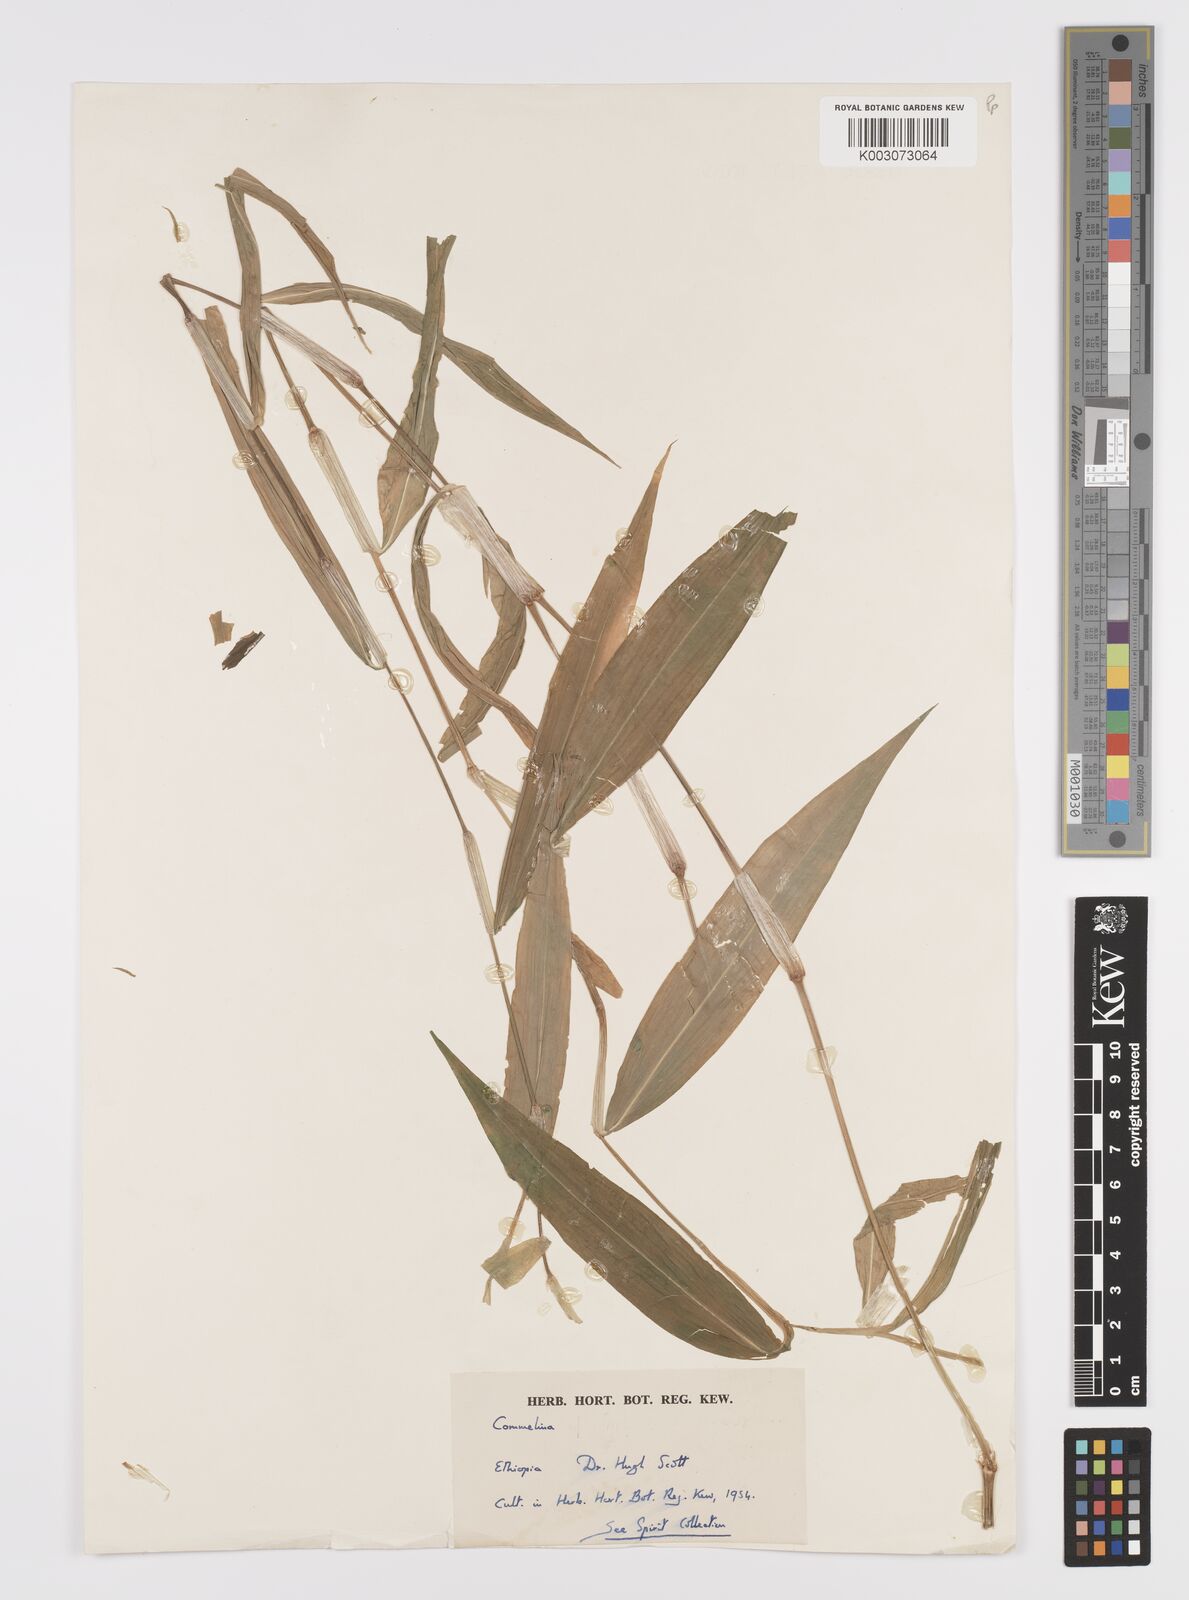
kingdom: Plantae
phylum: Tracheophyta
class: Liliopsida
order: Commelinales
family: Commelinaceae
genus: Commelina
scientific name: Commelina
